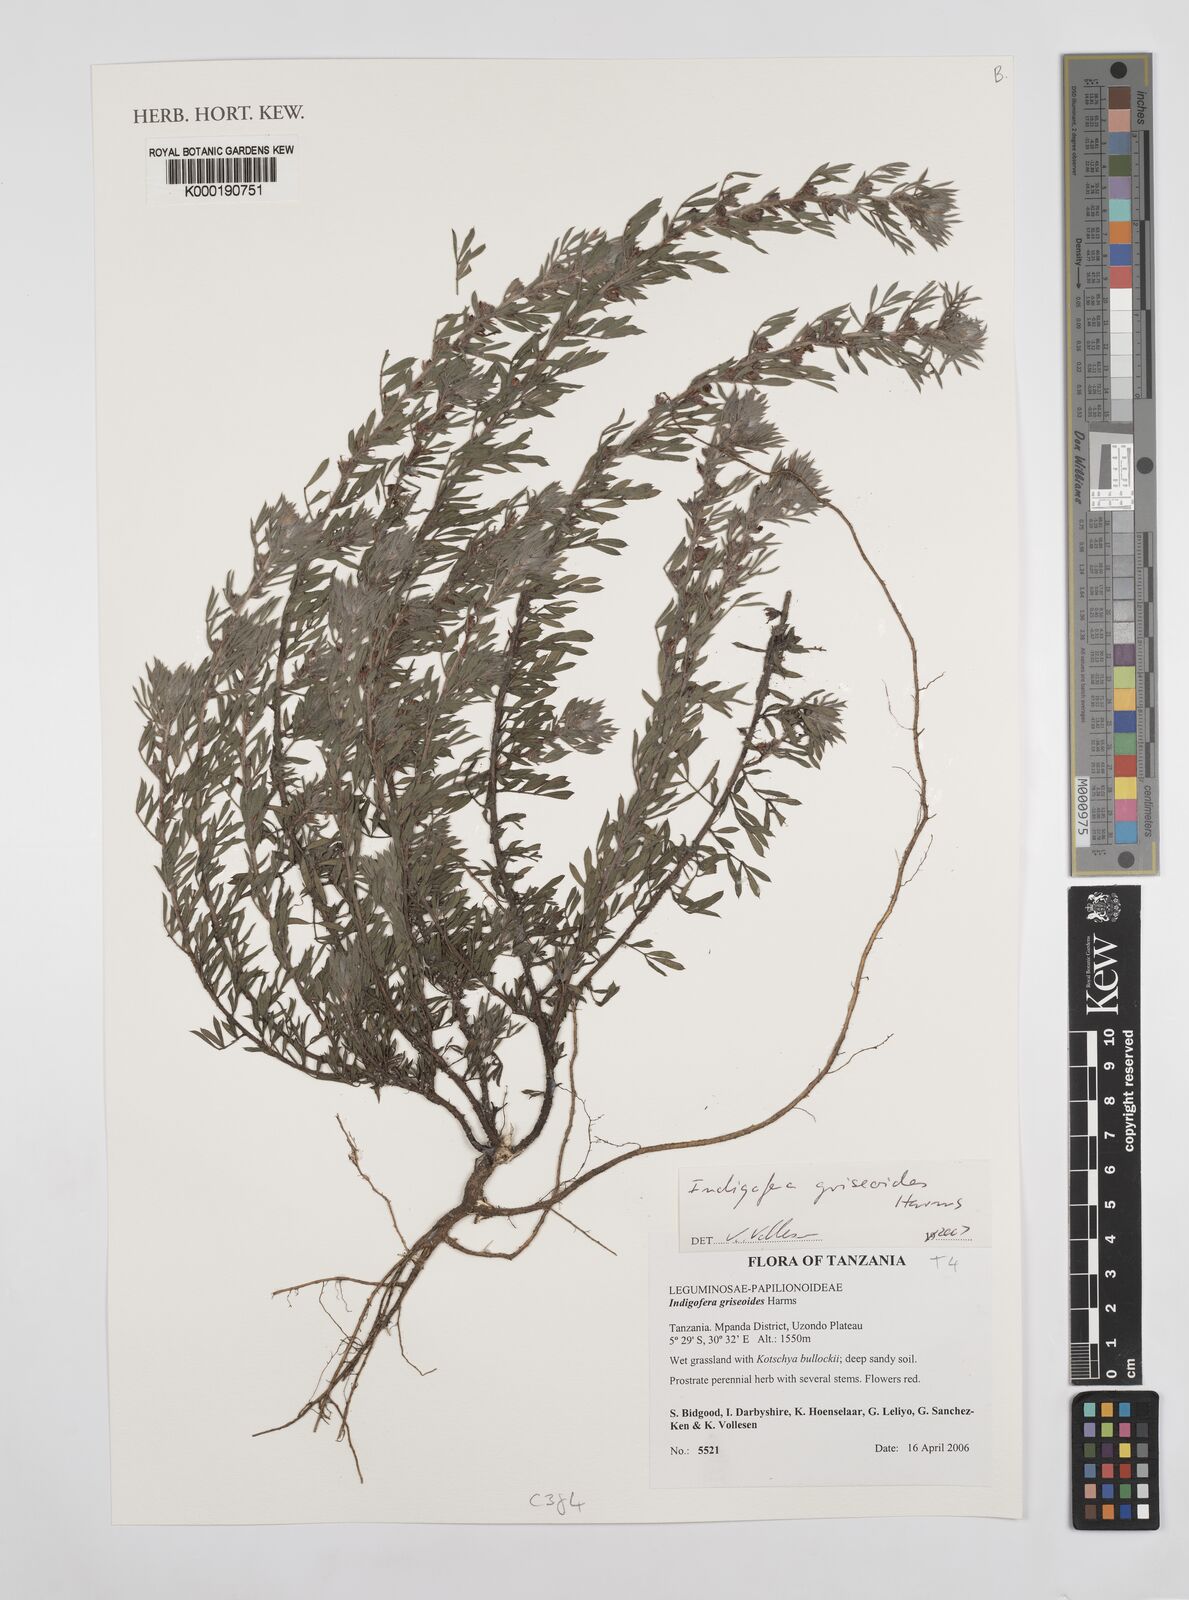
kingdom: Plantae
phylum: Tracheophyta
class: Magnoliopsida
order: Fabales
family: Fabaceae
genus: Indigofera
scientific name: Indigofera griseoides
